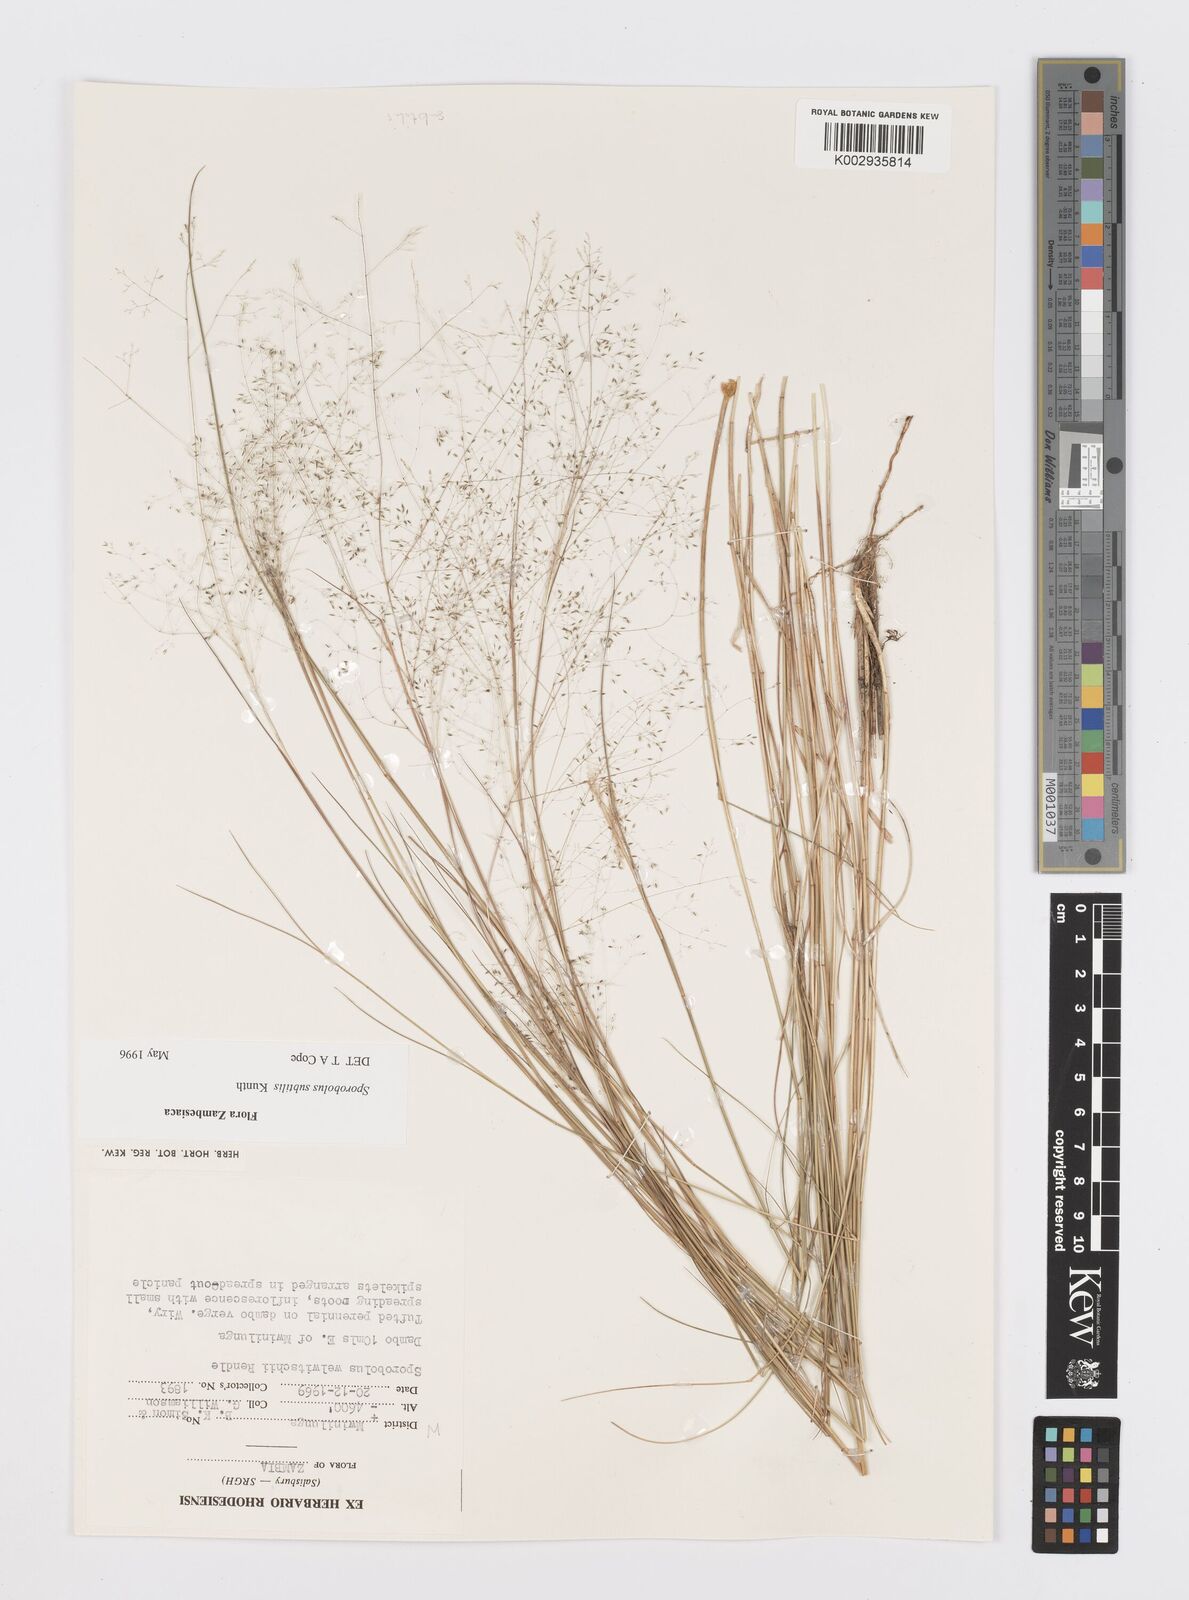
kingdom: Plantae
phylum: Tracheophyta
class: Liliopsida
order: Poales
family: Poaceae
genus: Sporobolus
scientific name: Sporobolus subtilis
